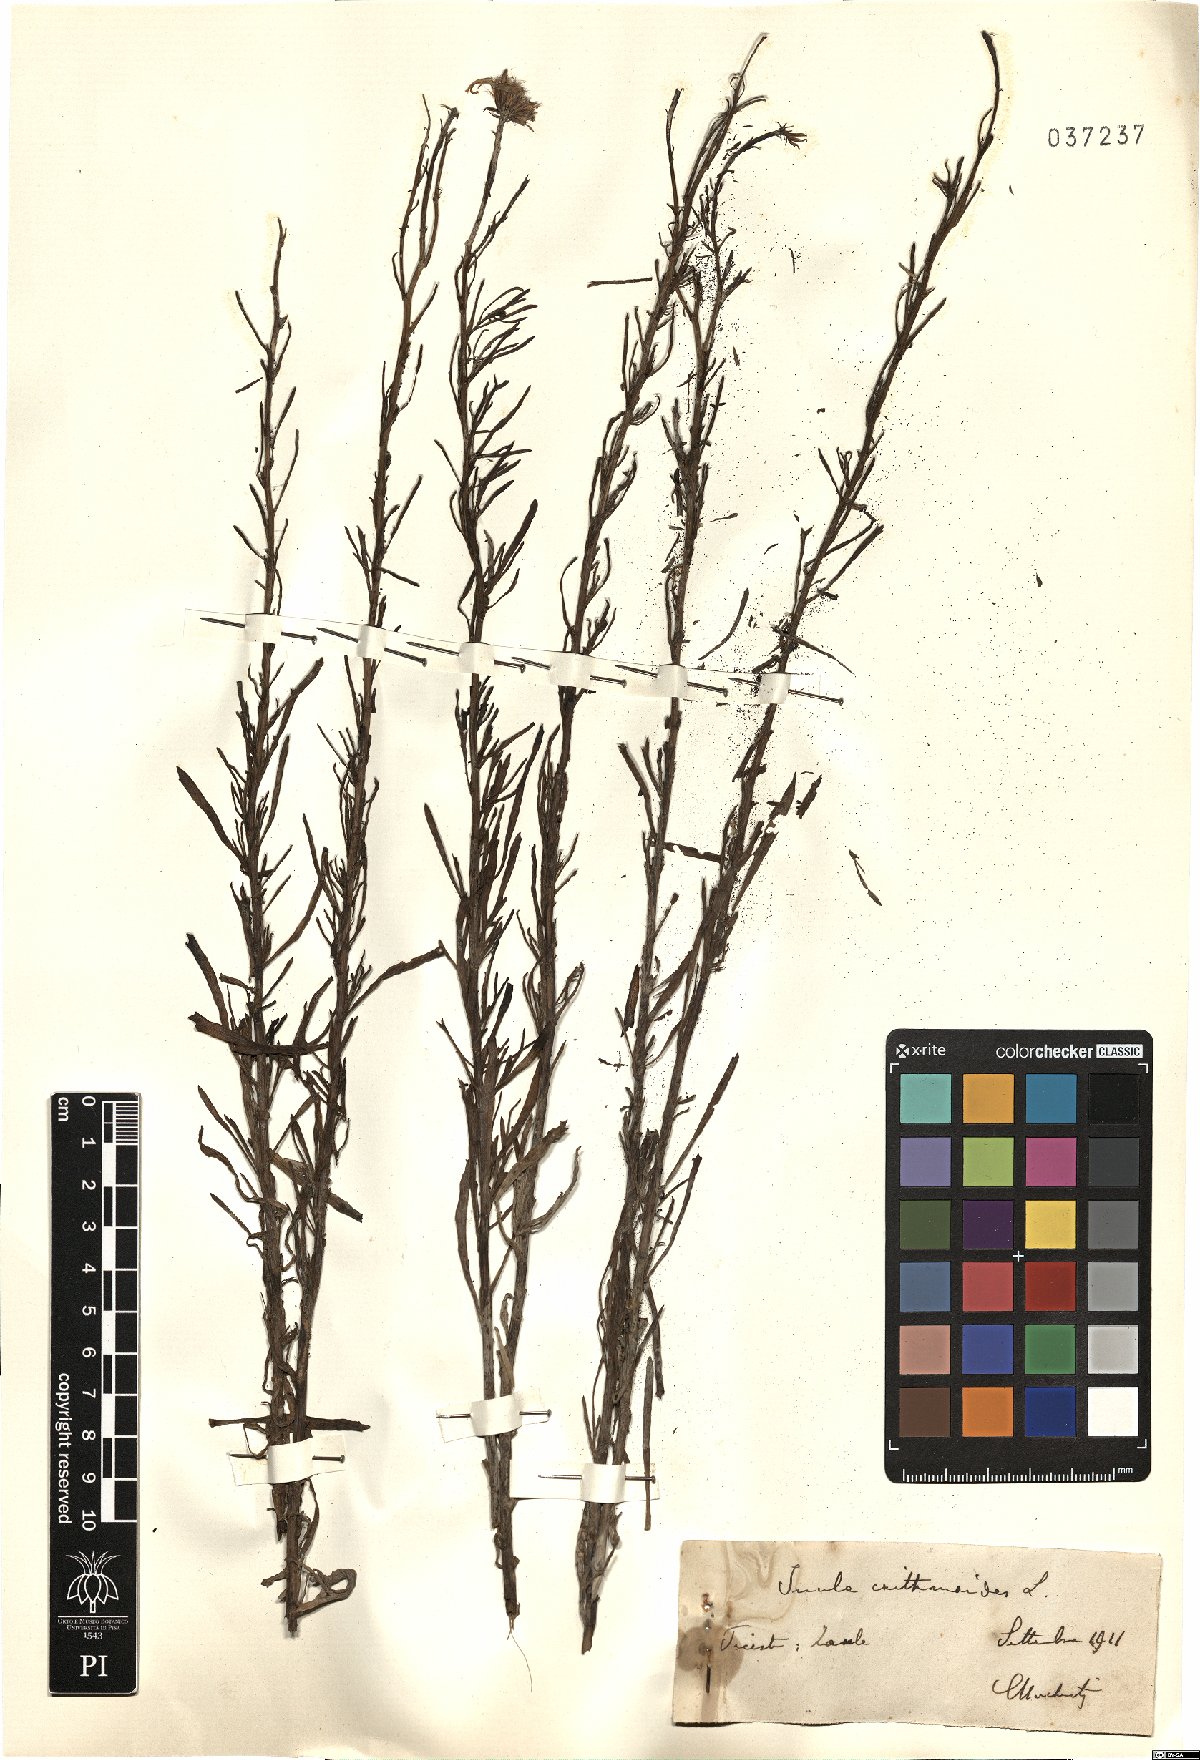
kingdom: Plantae
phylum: Tracheophyta
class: Magnoliopsida
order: Asterales
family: Asteraceae
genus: Limbarda
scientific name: Limbarda crithmoides
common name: Golden samphire
